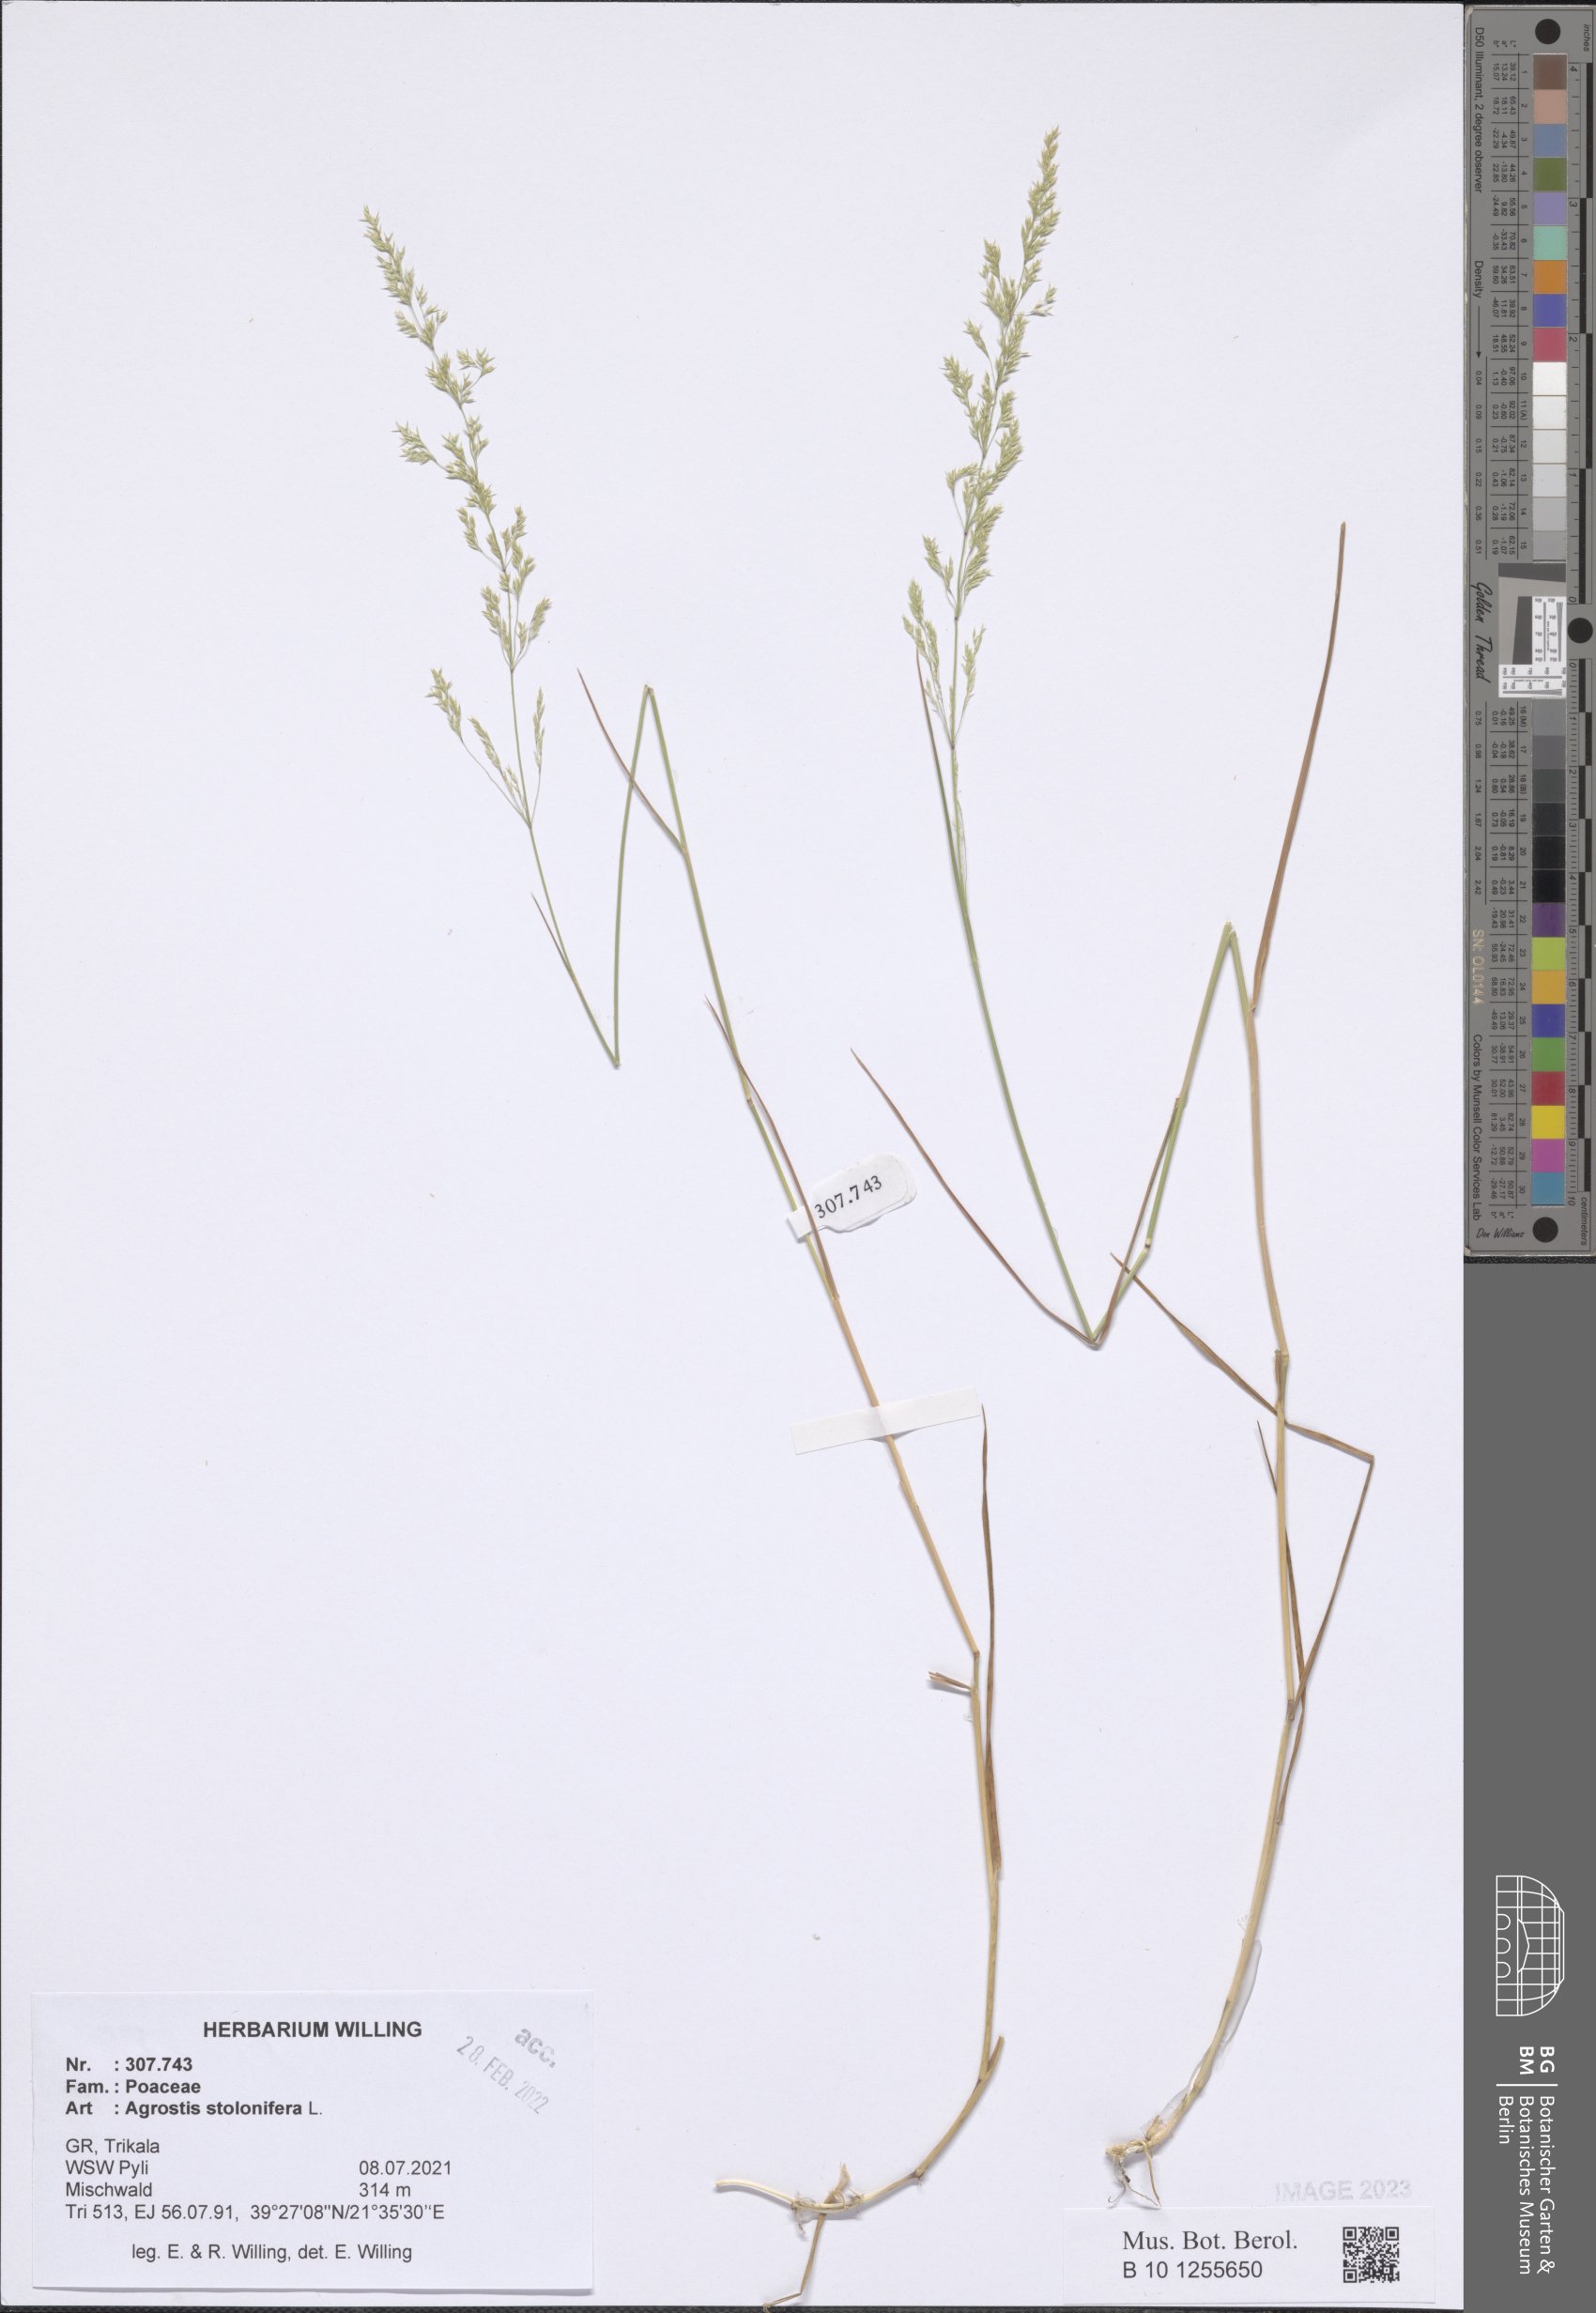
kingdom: Plantae
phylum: Tracheophyta
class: Liliopsida
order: Poales
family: Poaceae
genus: Agrostis
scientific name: Agrostis stolonifera
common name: Creeping bentgrass
